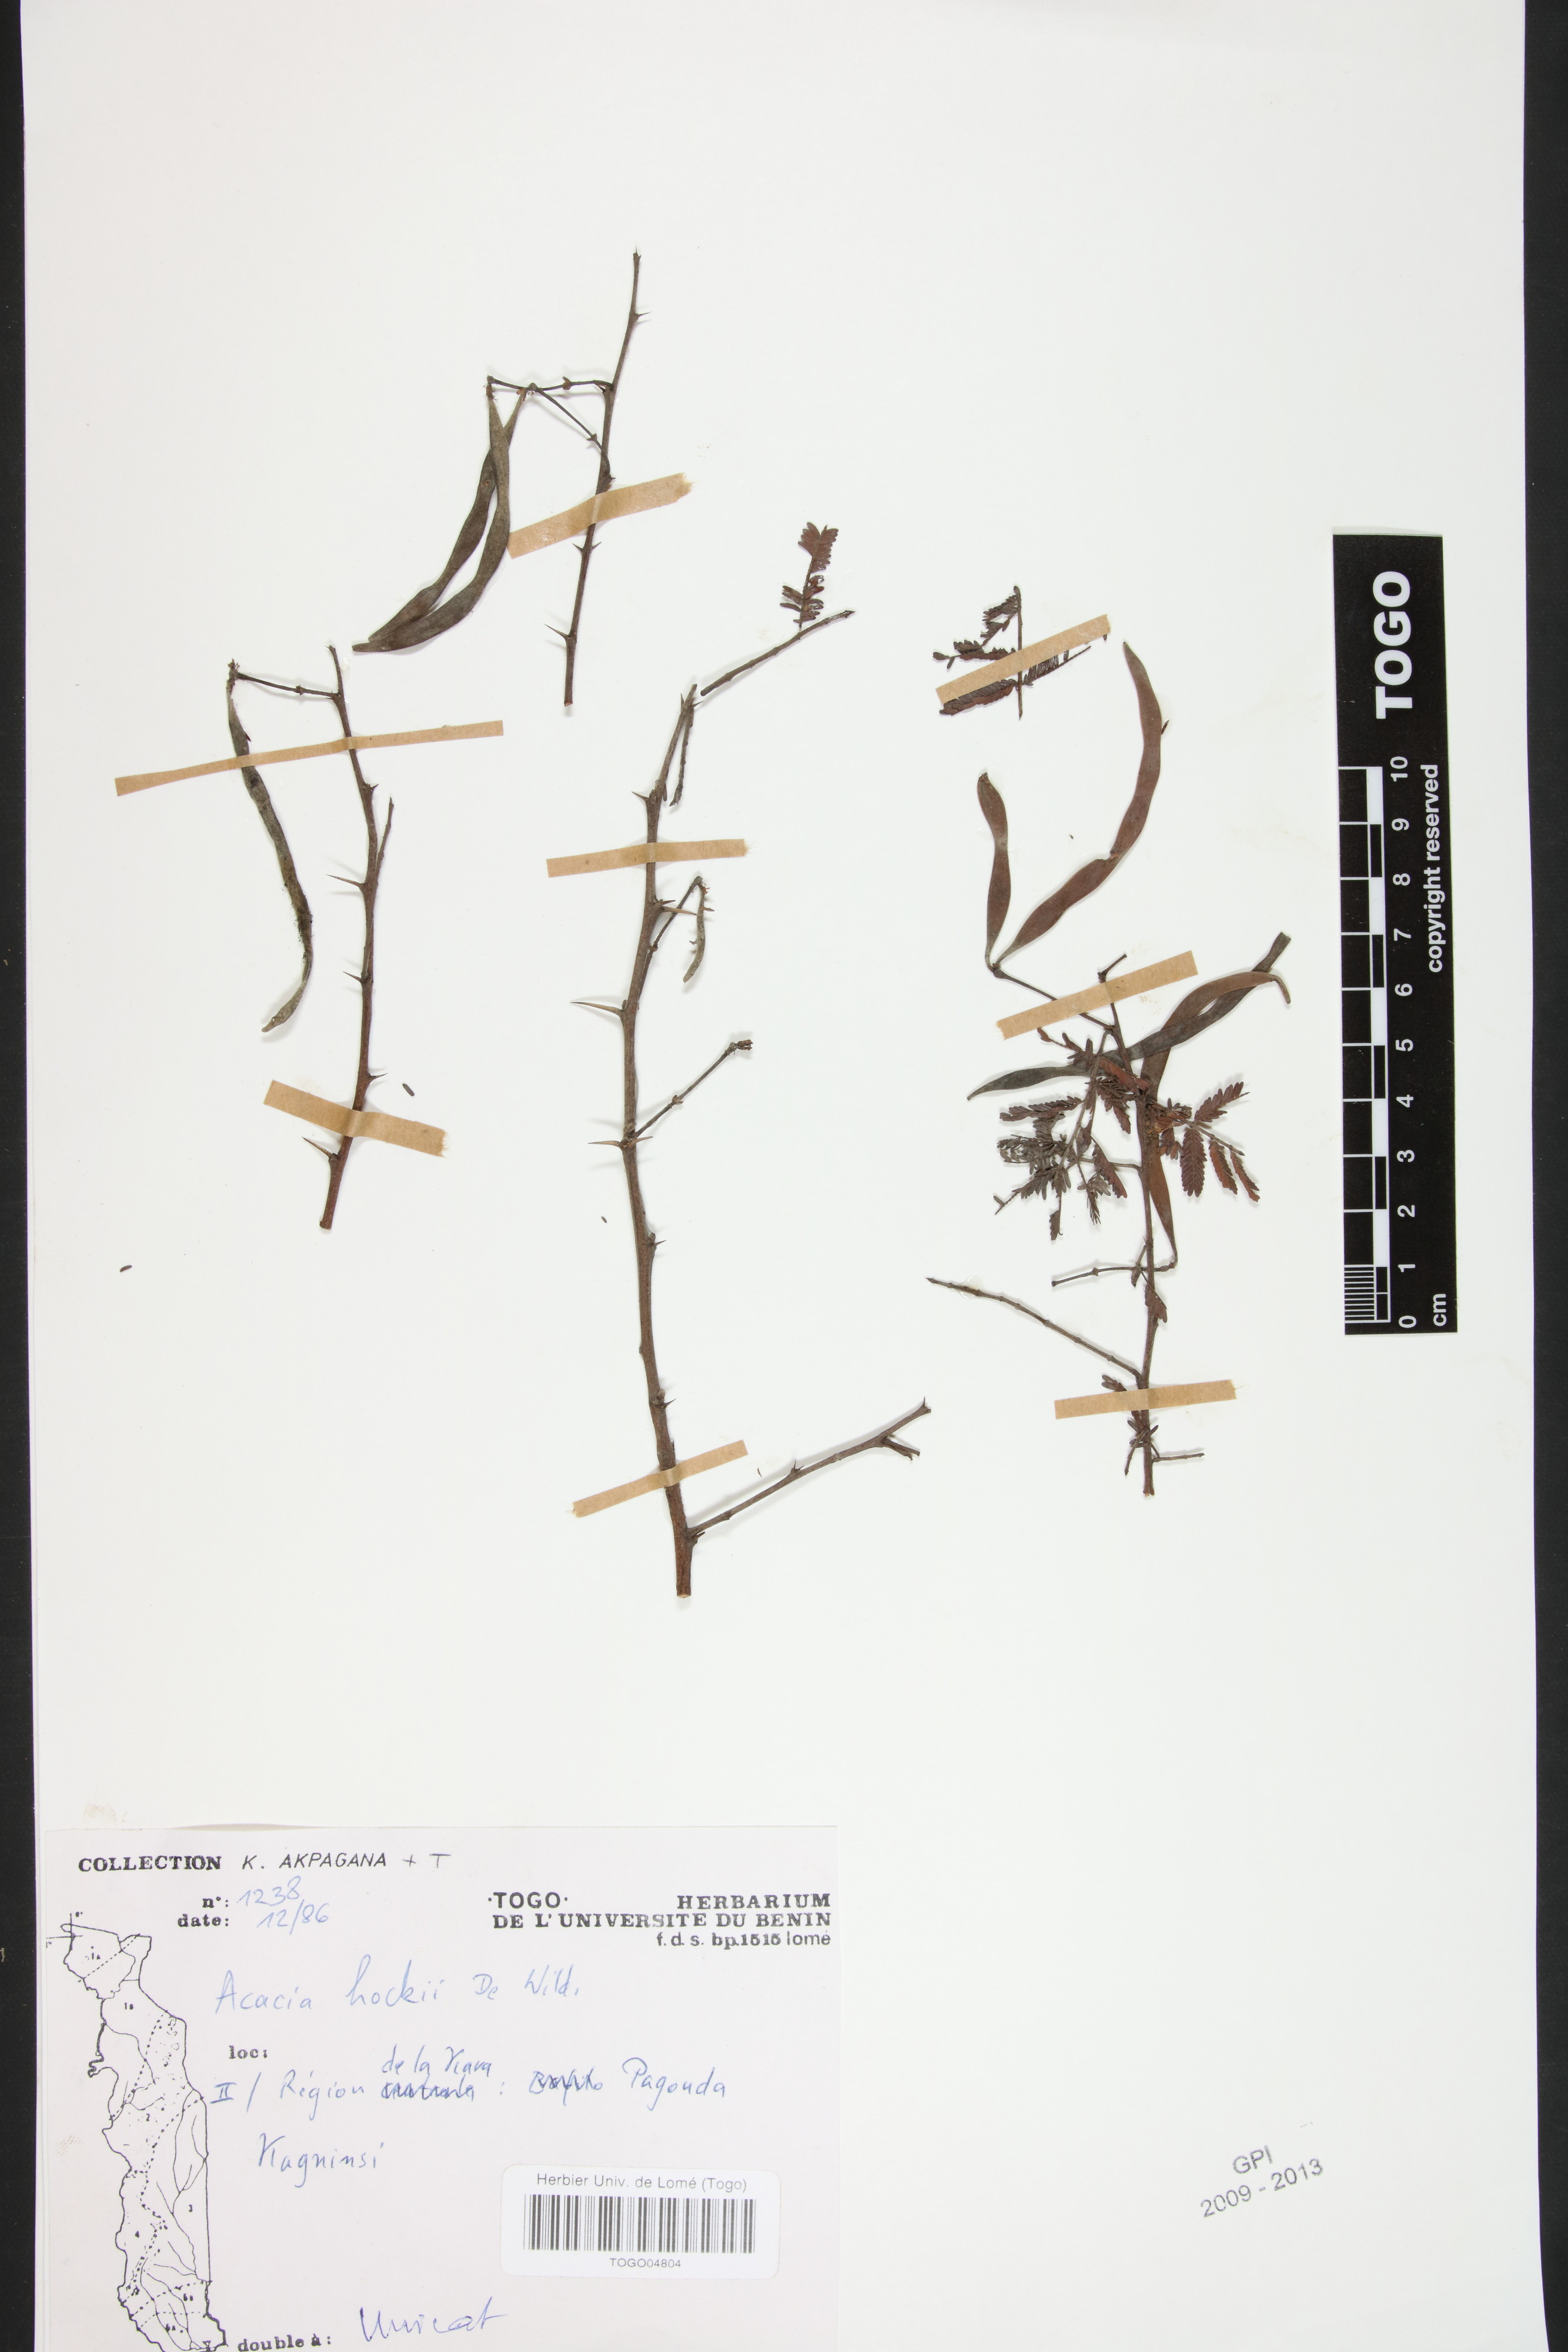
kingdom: Plantae
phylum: Tracheophyta
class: Magnoliopsida
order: Fabales
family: Fabaceae
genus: Vachellia
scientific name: Vachellia hockii
